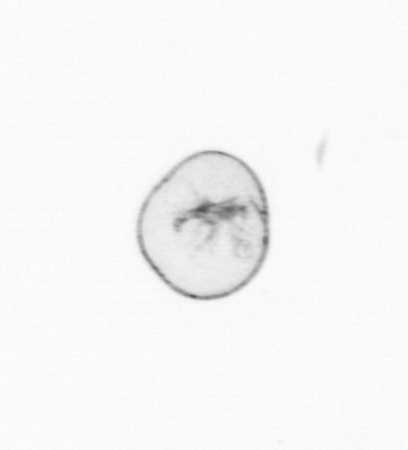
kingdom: Chromista
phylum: Myzozoa
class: Dinophyceae
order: Noctilucales
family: Noctilucaceae
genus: Noctiluca
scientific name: Noctiluca scintillans
